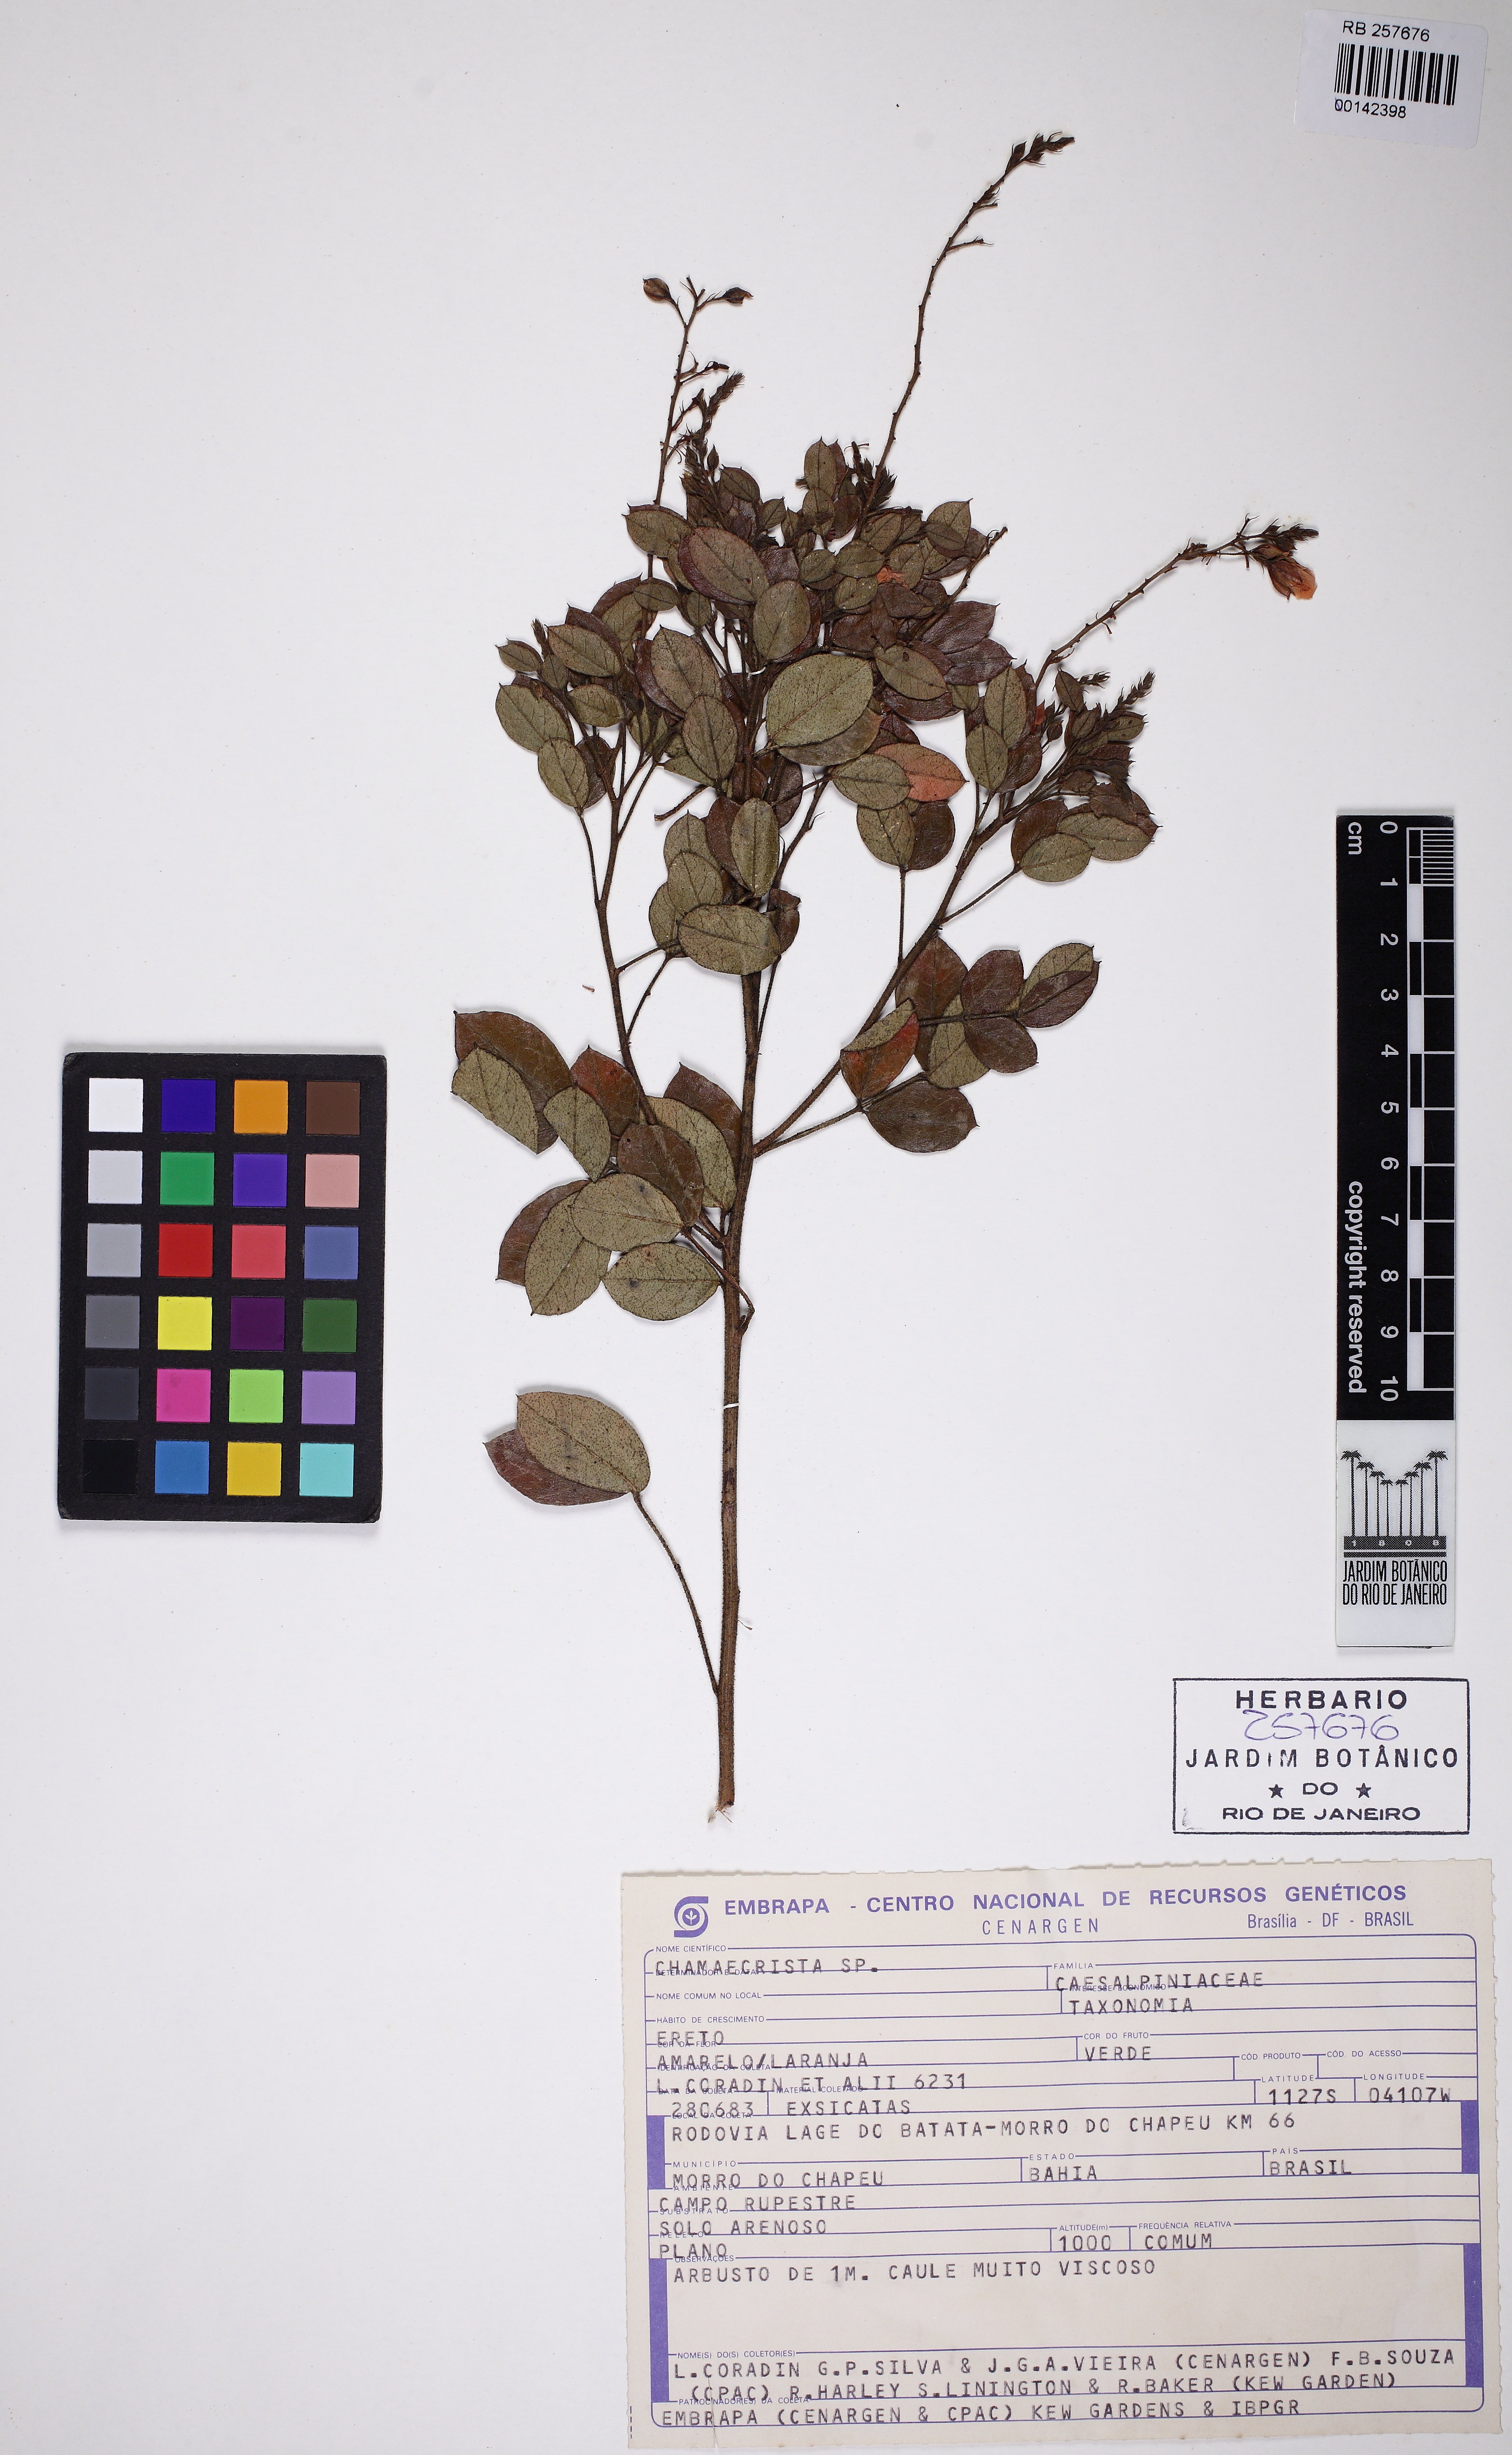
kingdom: Plantae
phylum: Tracheophyta
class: Magnoliopsida
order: Fabales
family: Fabaceae
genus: Chamaecrista
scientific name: Chamaecrista
